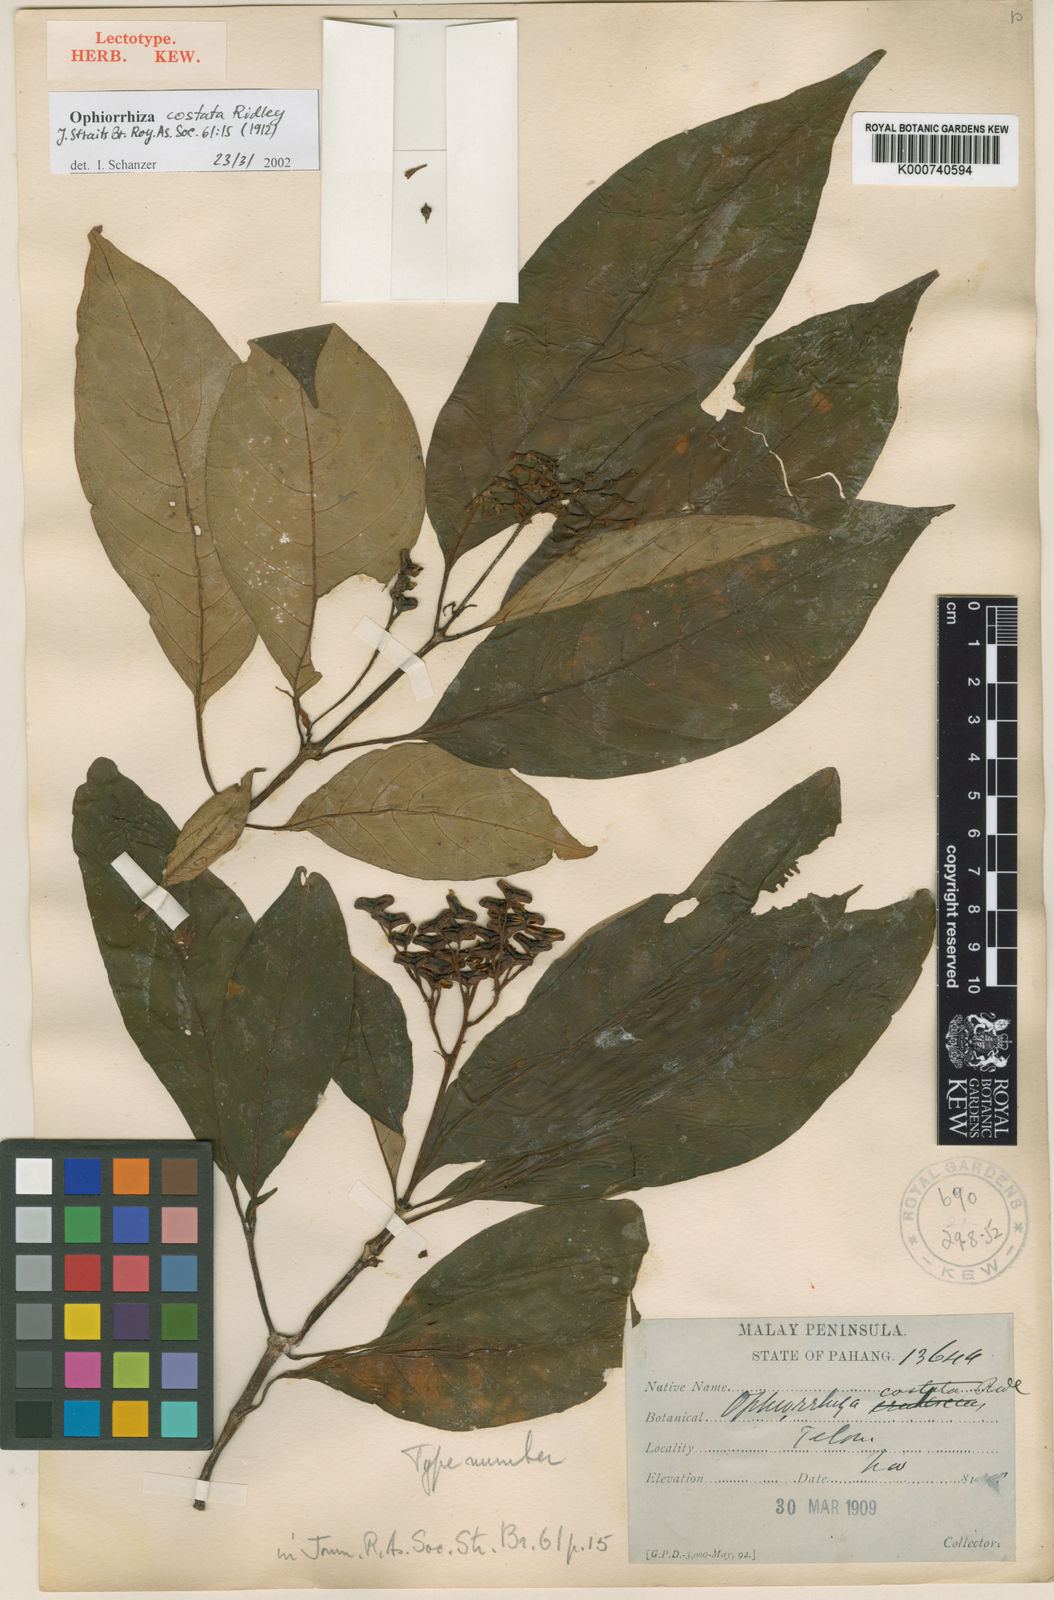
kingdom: Plantae
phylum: Tracheophyta
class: Magnoliopsida
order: Gentianales
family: Rubiaceae
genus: Ophiorrhiza
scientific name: Ophiorrhiza costata
